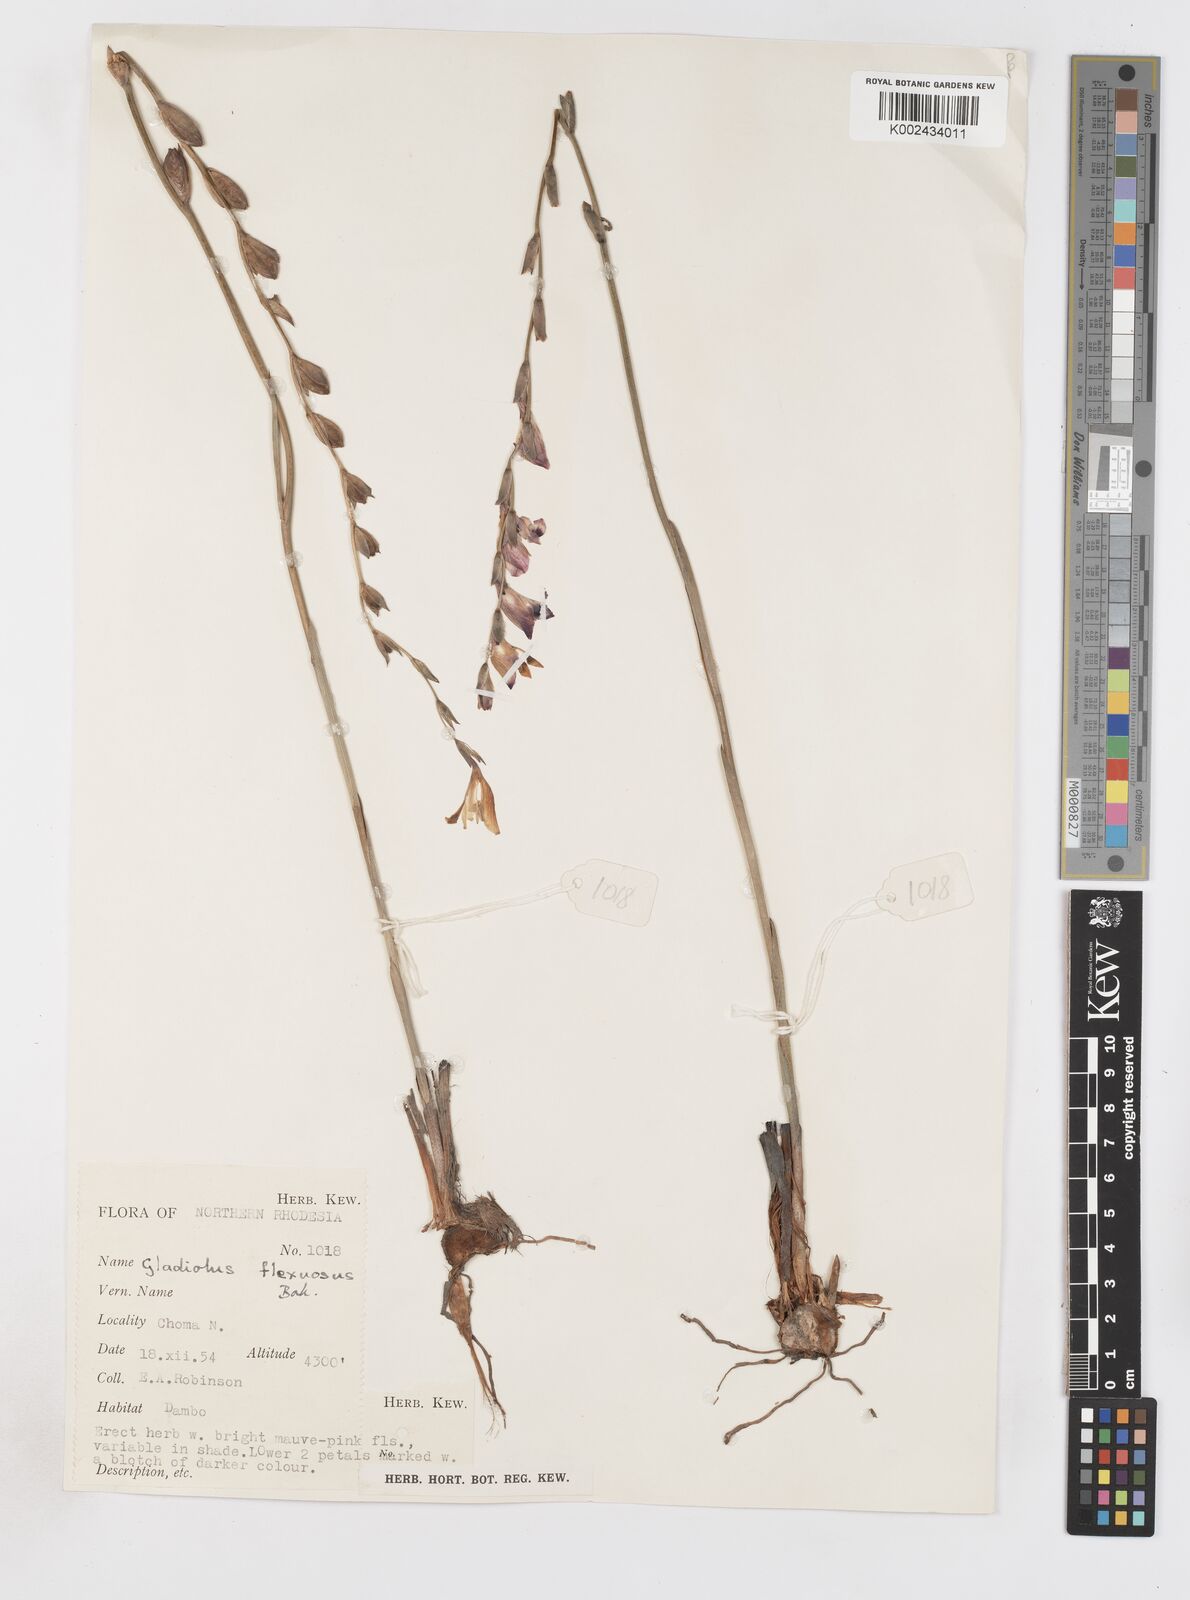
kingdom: Plantae
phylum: Tracheophyta
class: Liliopsida
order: Asparagales
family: Iridaceae
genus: Gladiolus
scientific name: Gladiolus atropurpureus
